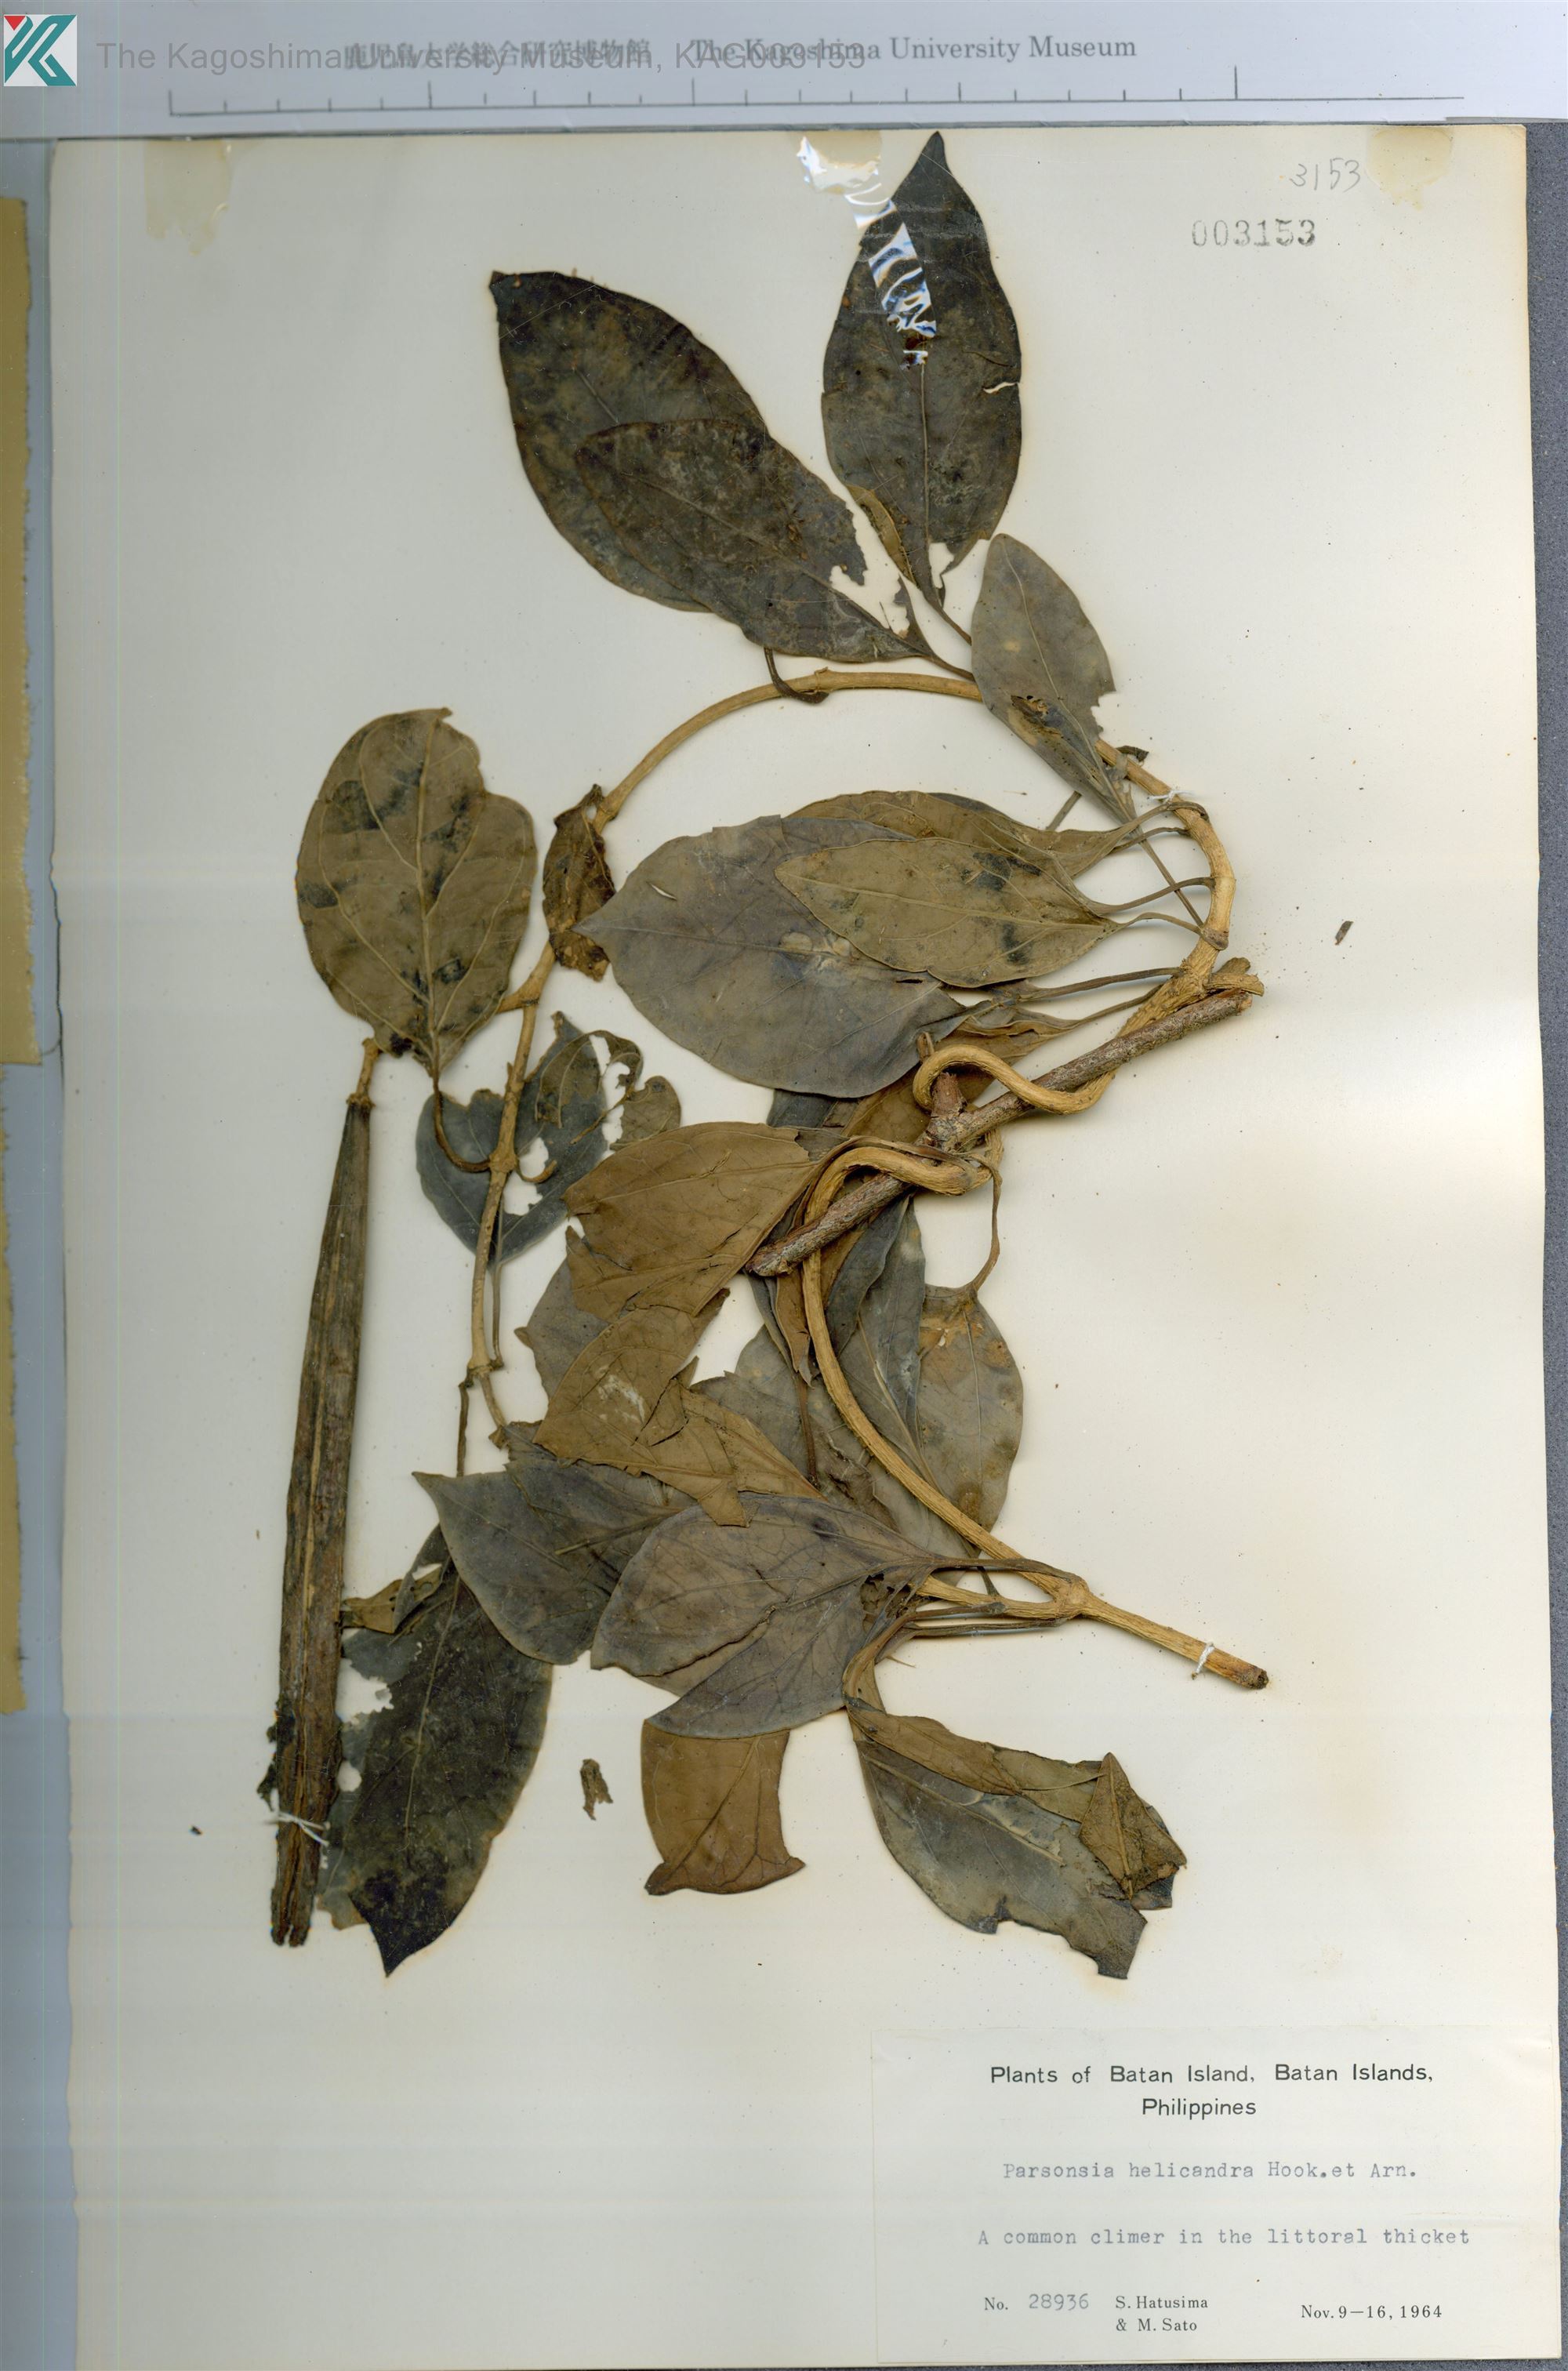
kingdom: Plantae
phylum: Tracheophyta
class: Magnoliopsida
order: Gentianales
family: Apocynaceae
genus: Parsonsia
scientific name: Parsonsia alboflavescens
